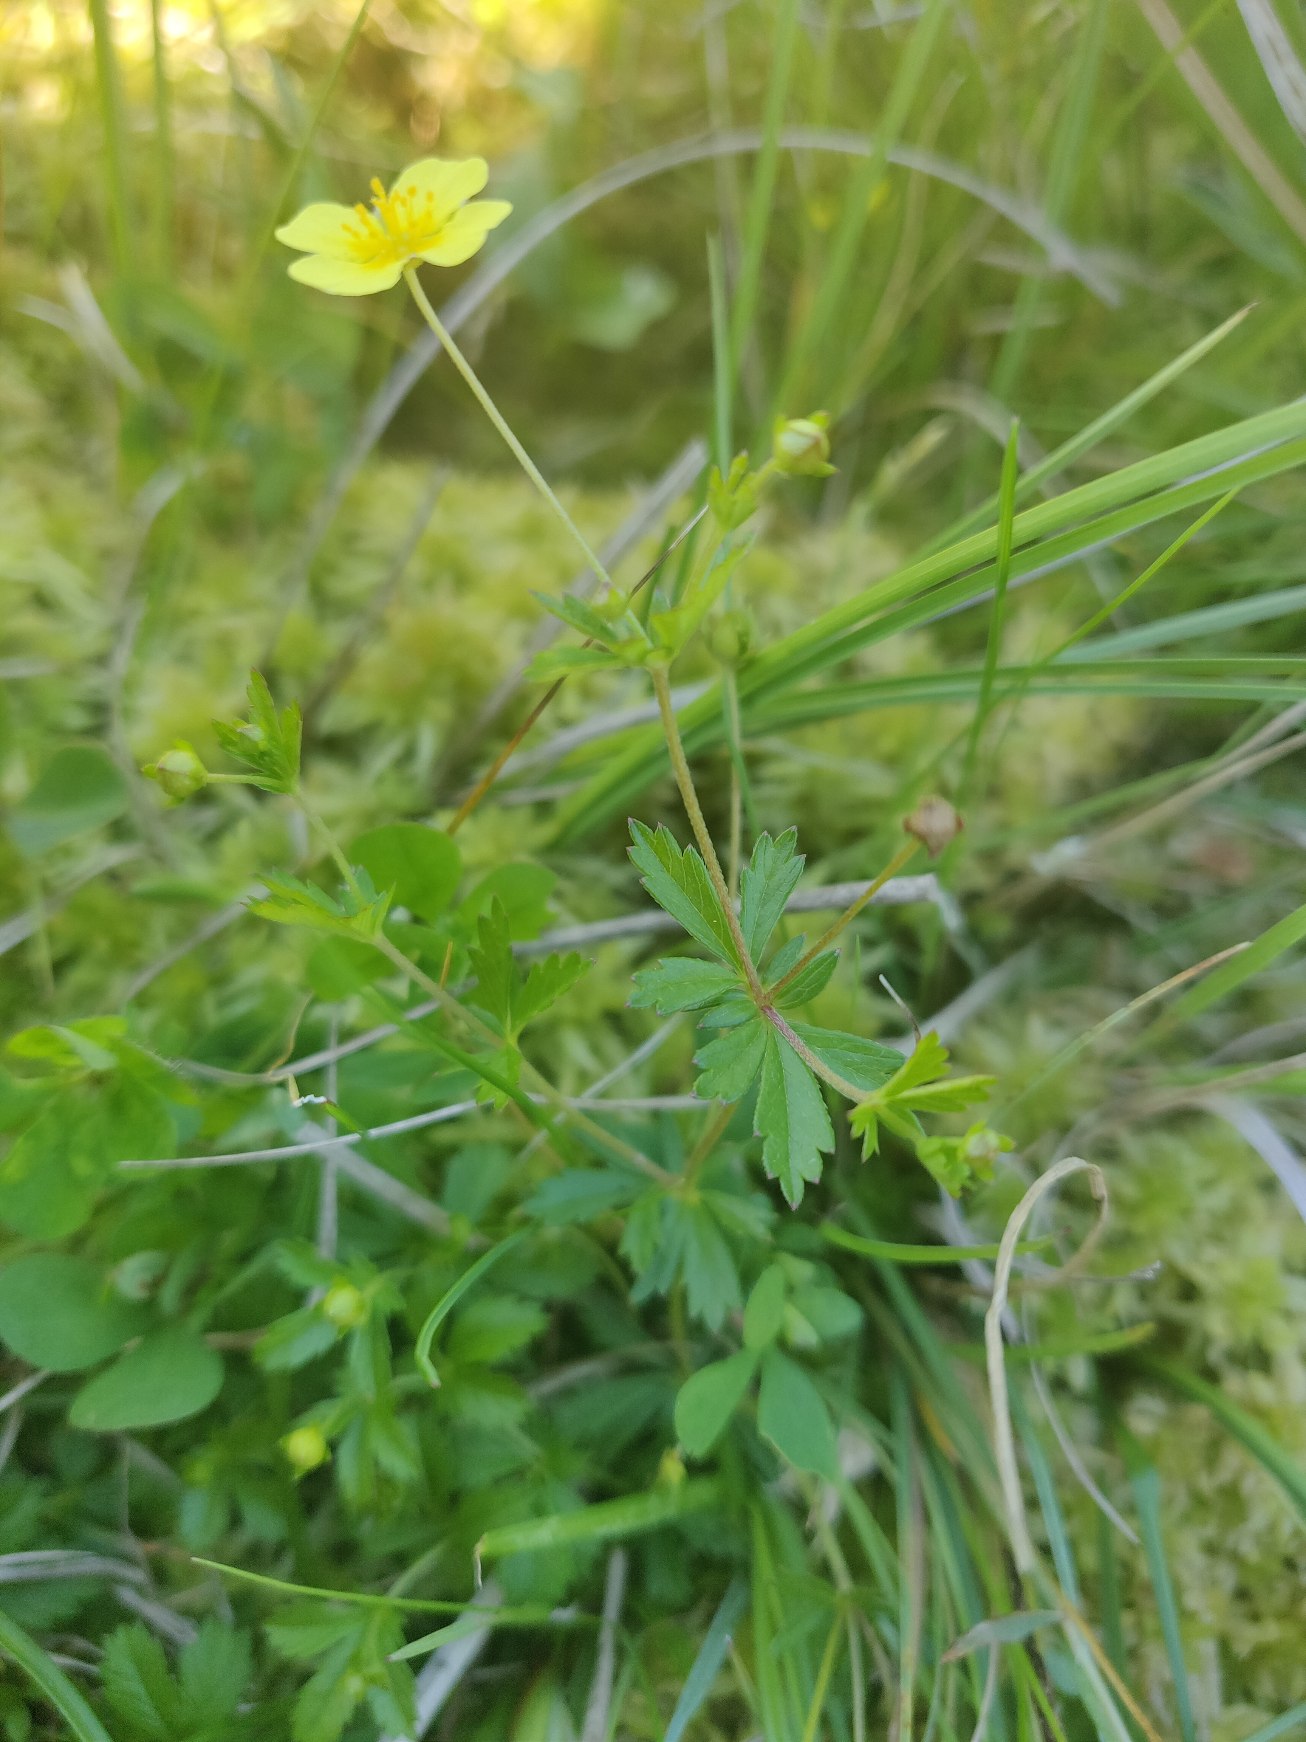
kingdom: Plantae
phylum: Tracheophyta
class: Magnoliopsida
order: Rosales
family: Rosaceae
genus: Potentilla
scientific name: Potentilla erecta
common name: Tormentil
